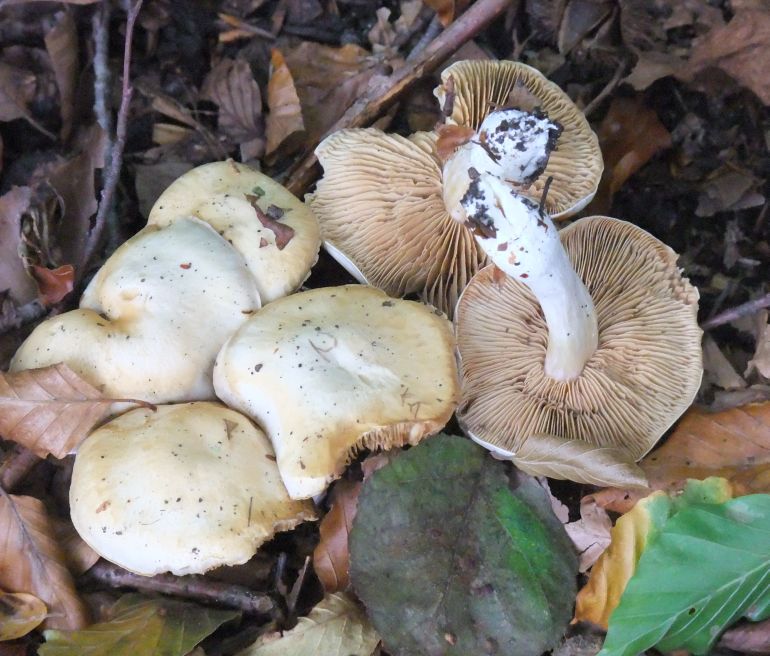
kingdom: Fungi
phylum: Basidiomycota
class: Agaricomycetes
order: Agaricales
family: Cortinariaceae
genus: Thaxterogaster
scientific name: Thaxterogaster barbatus
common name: elfenbens-slørhat
